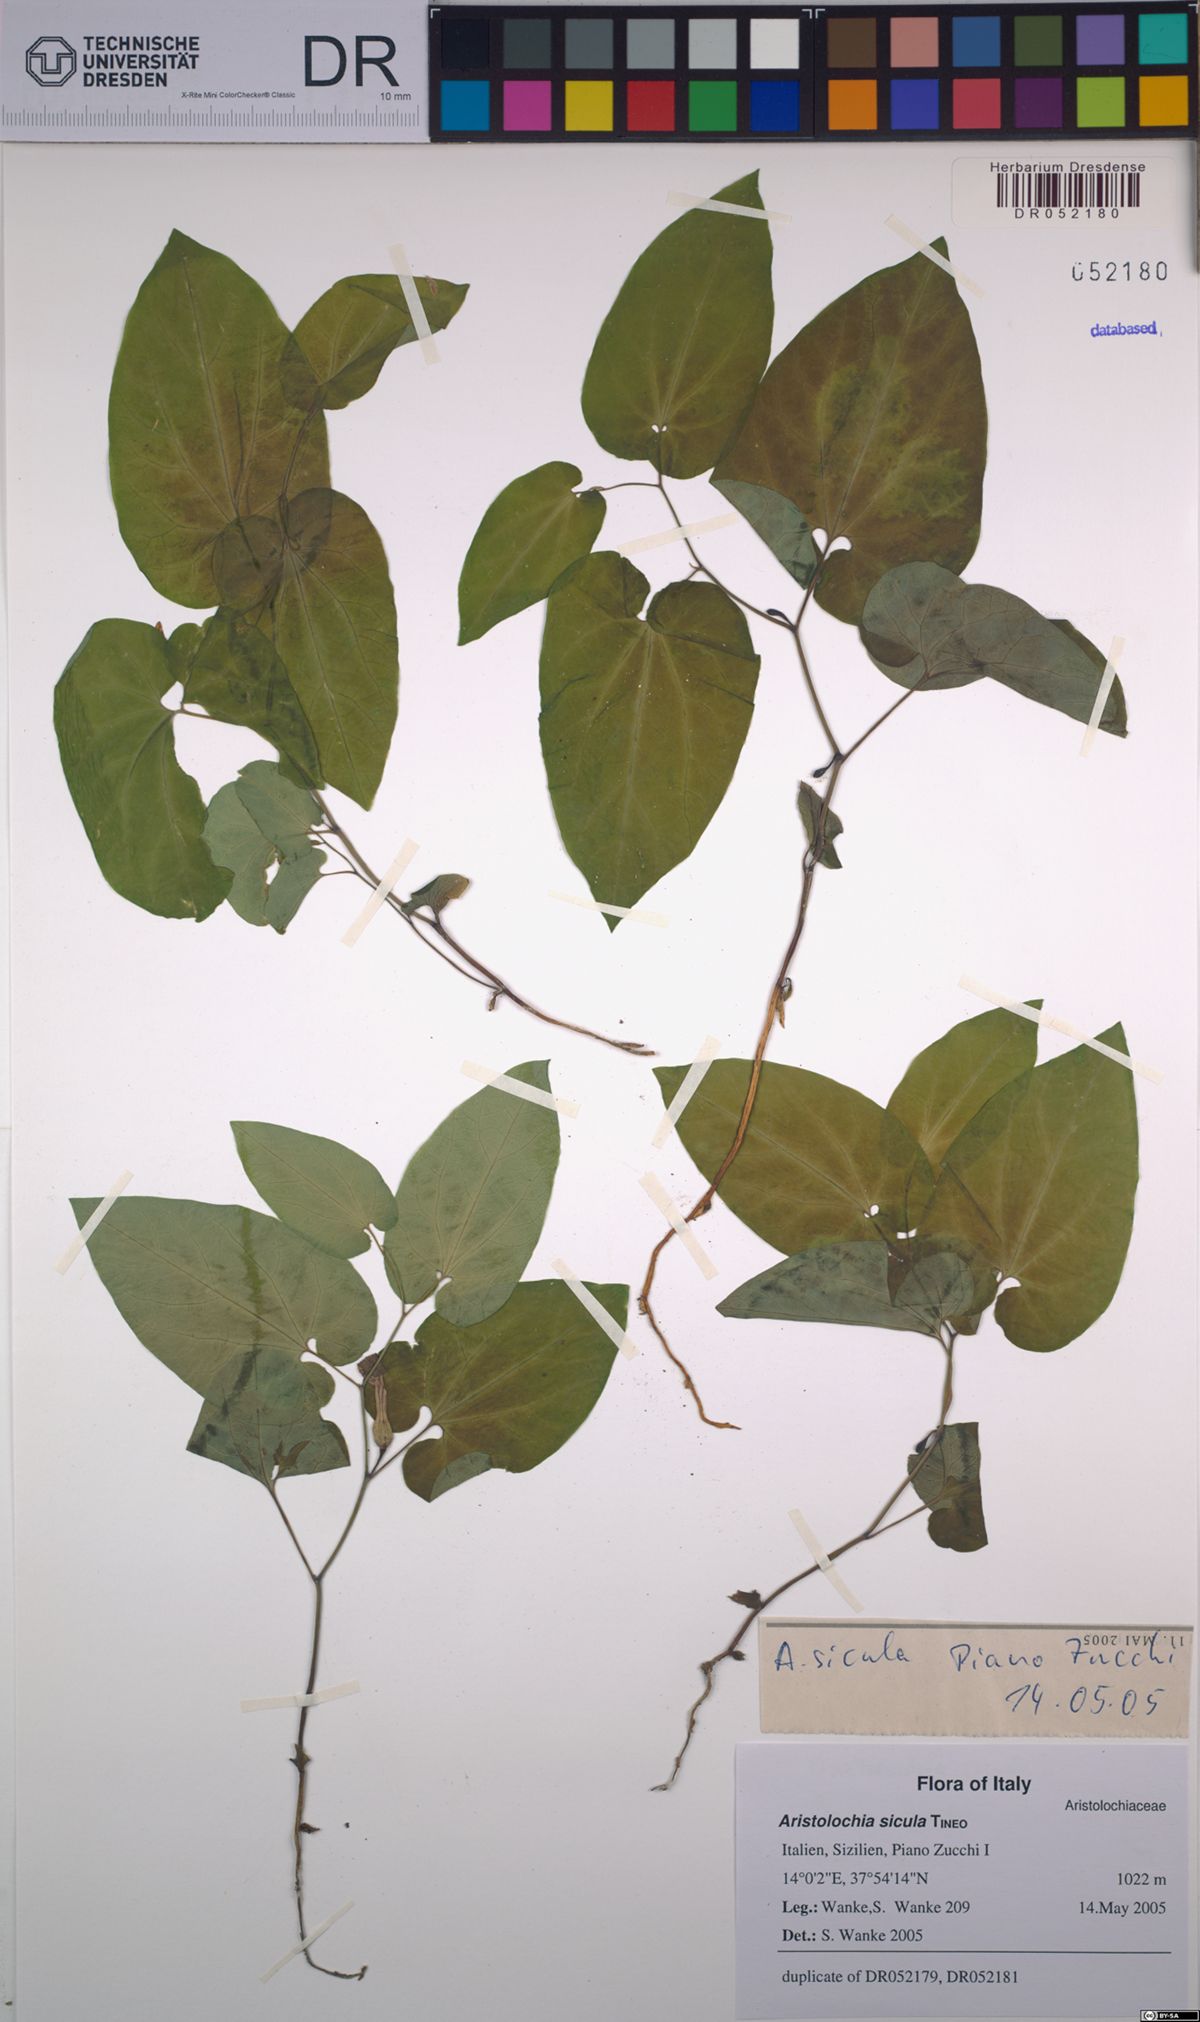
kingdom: Plantae
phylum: Tracheophyta
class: Magnoliopsida
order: Piperales
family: Aristolochiaceae
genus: Aristolochia
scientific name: Aristolochia sicula
